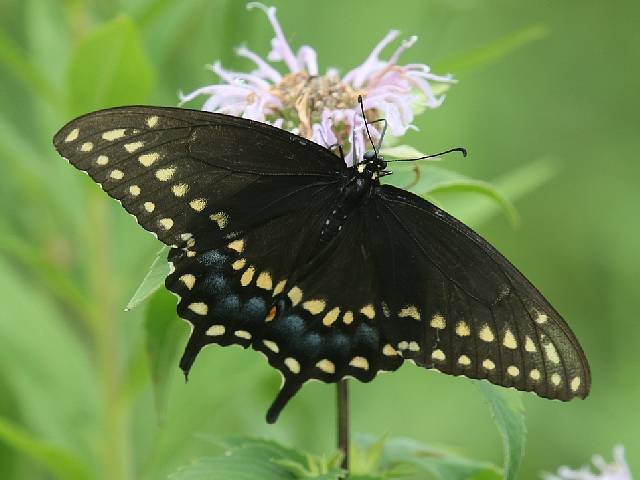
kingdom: Animalia
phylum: Arthropoda
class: Insecta
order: Lepidoptera
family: Papilionidae
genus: Papilio
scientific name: Papilio polyxenes
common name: Black Swallowtail
